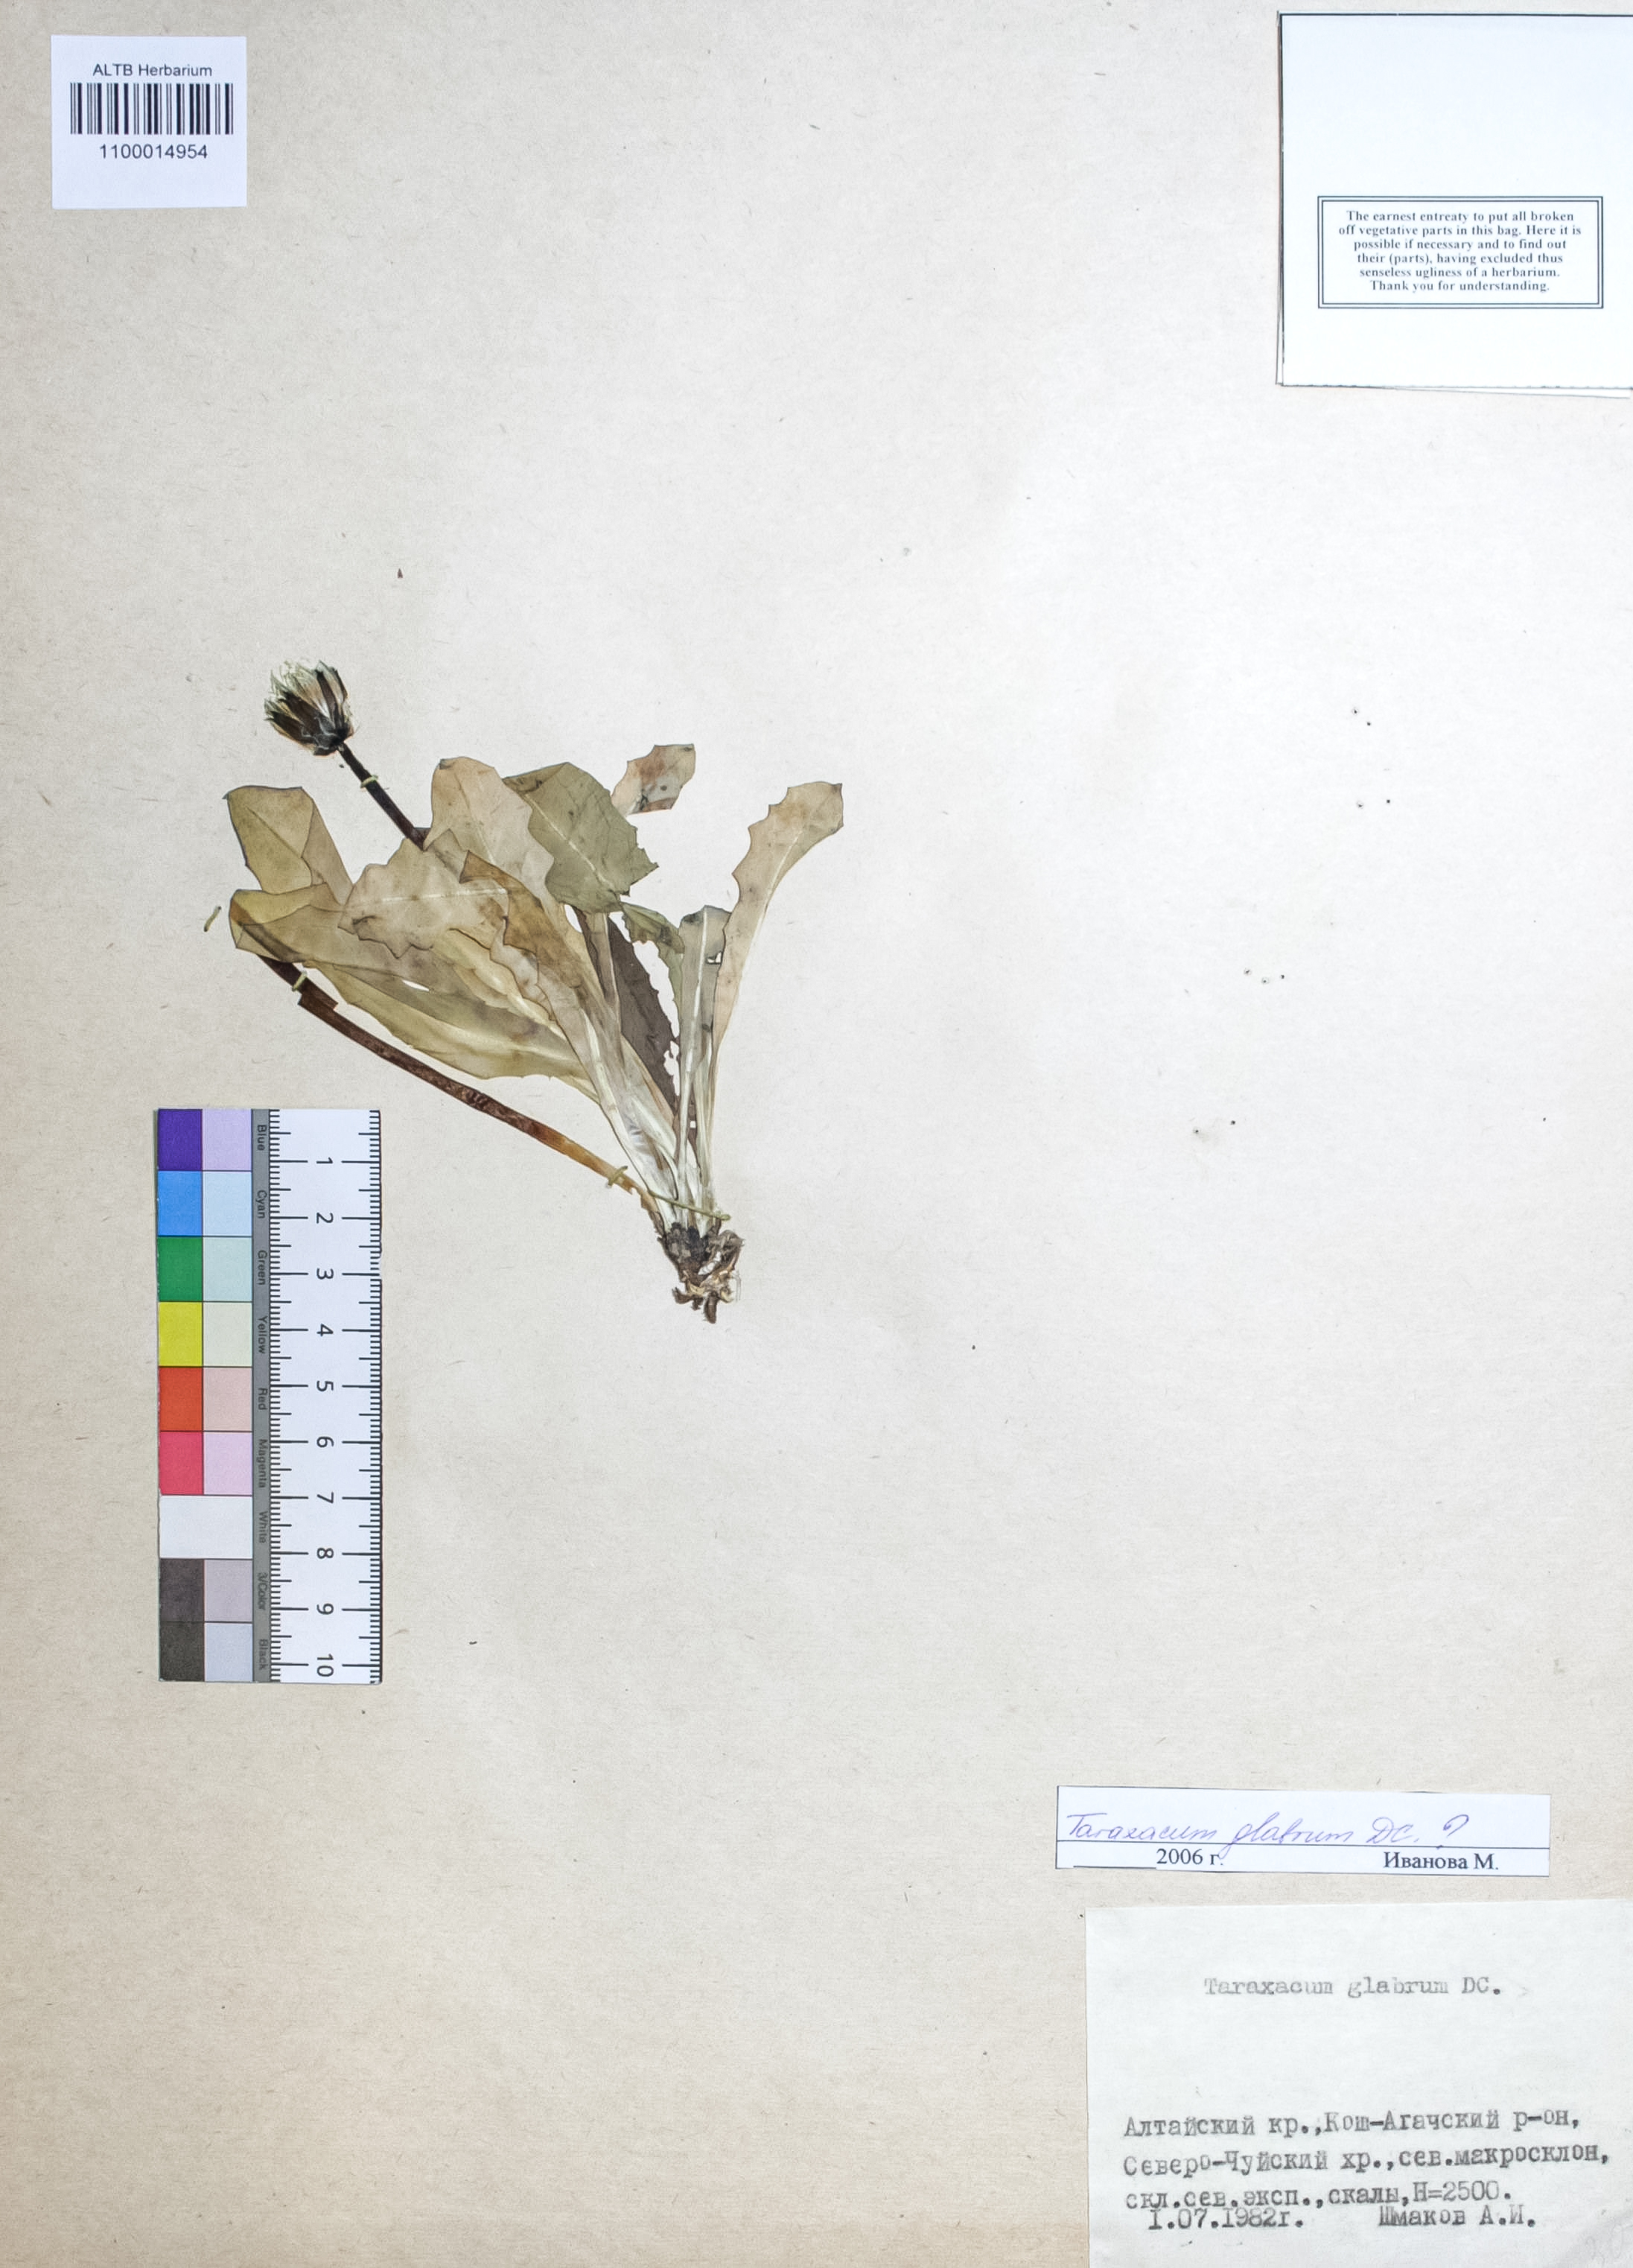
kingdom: Plantae
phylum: Tracheophyta
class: Magnoliopsida
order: Asterales
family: Asteraceae
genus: Taraxacum
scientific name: Taraxacum glabrum
